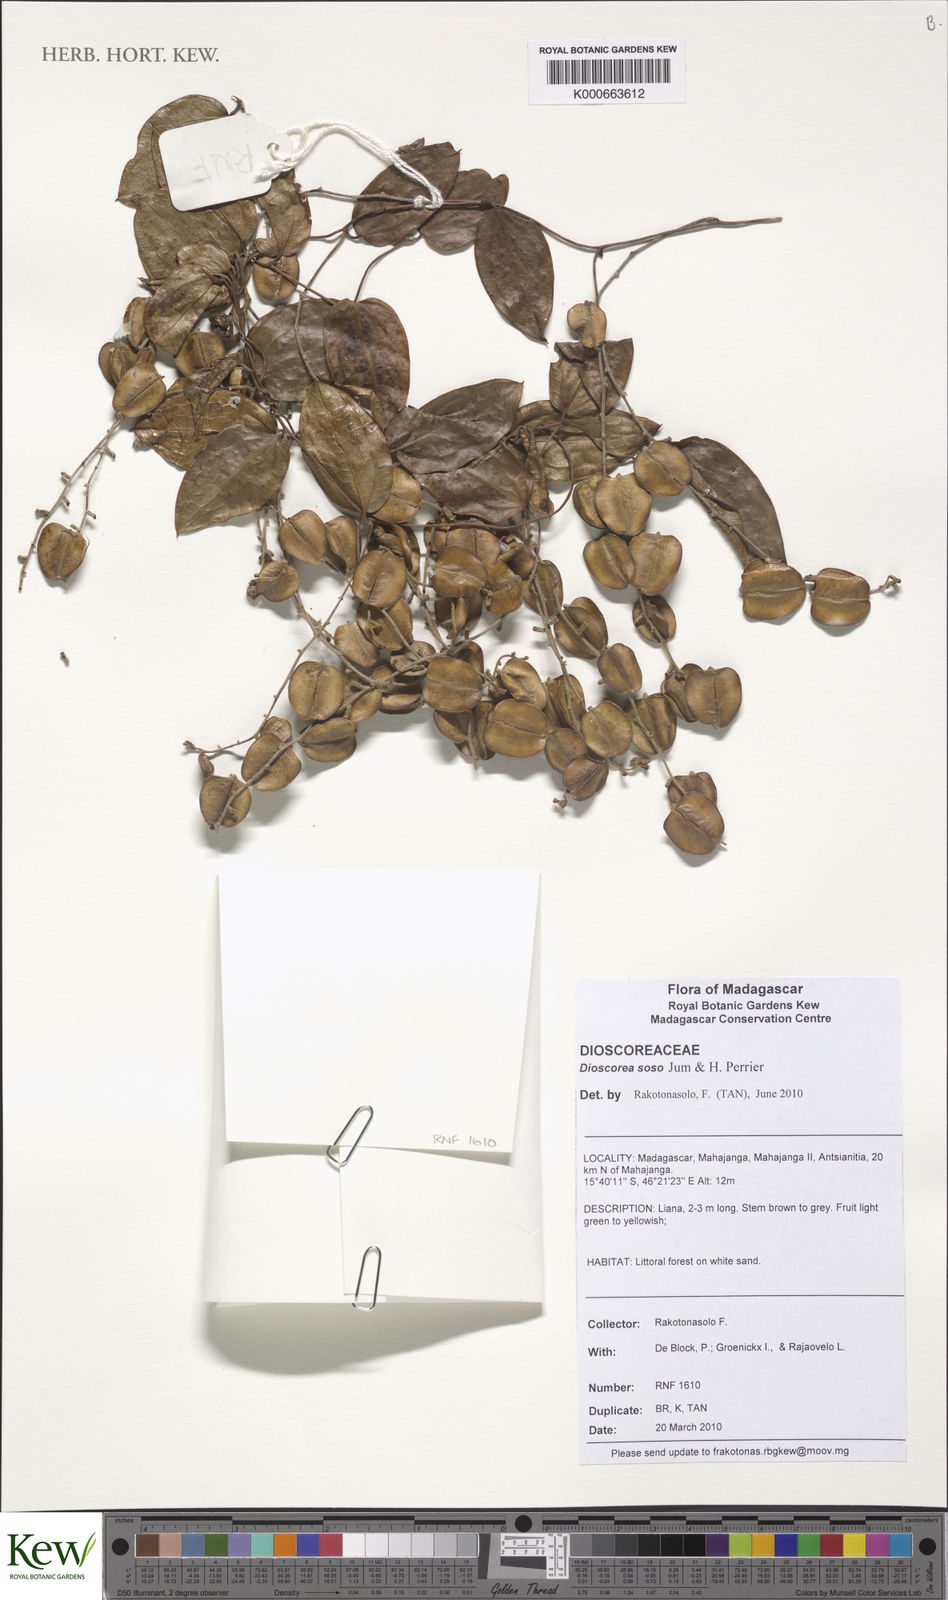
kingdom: Plantae
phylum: Tracheophyta
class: Liliopsida
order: Dioscoreales
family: Dioscoreaceae
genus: Dioscorea
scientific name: Dioscorea soso
